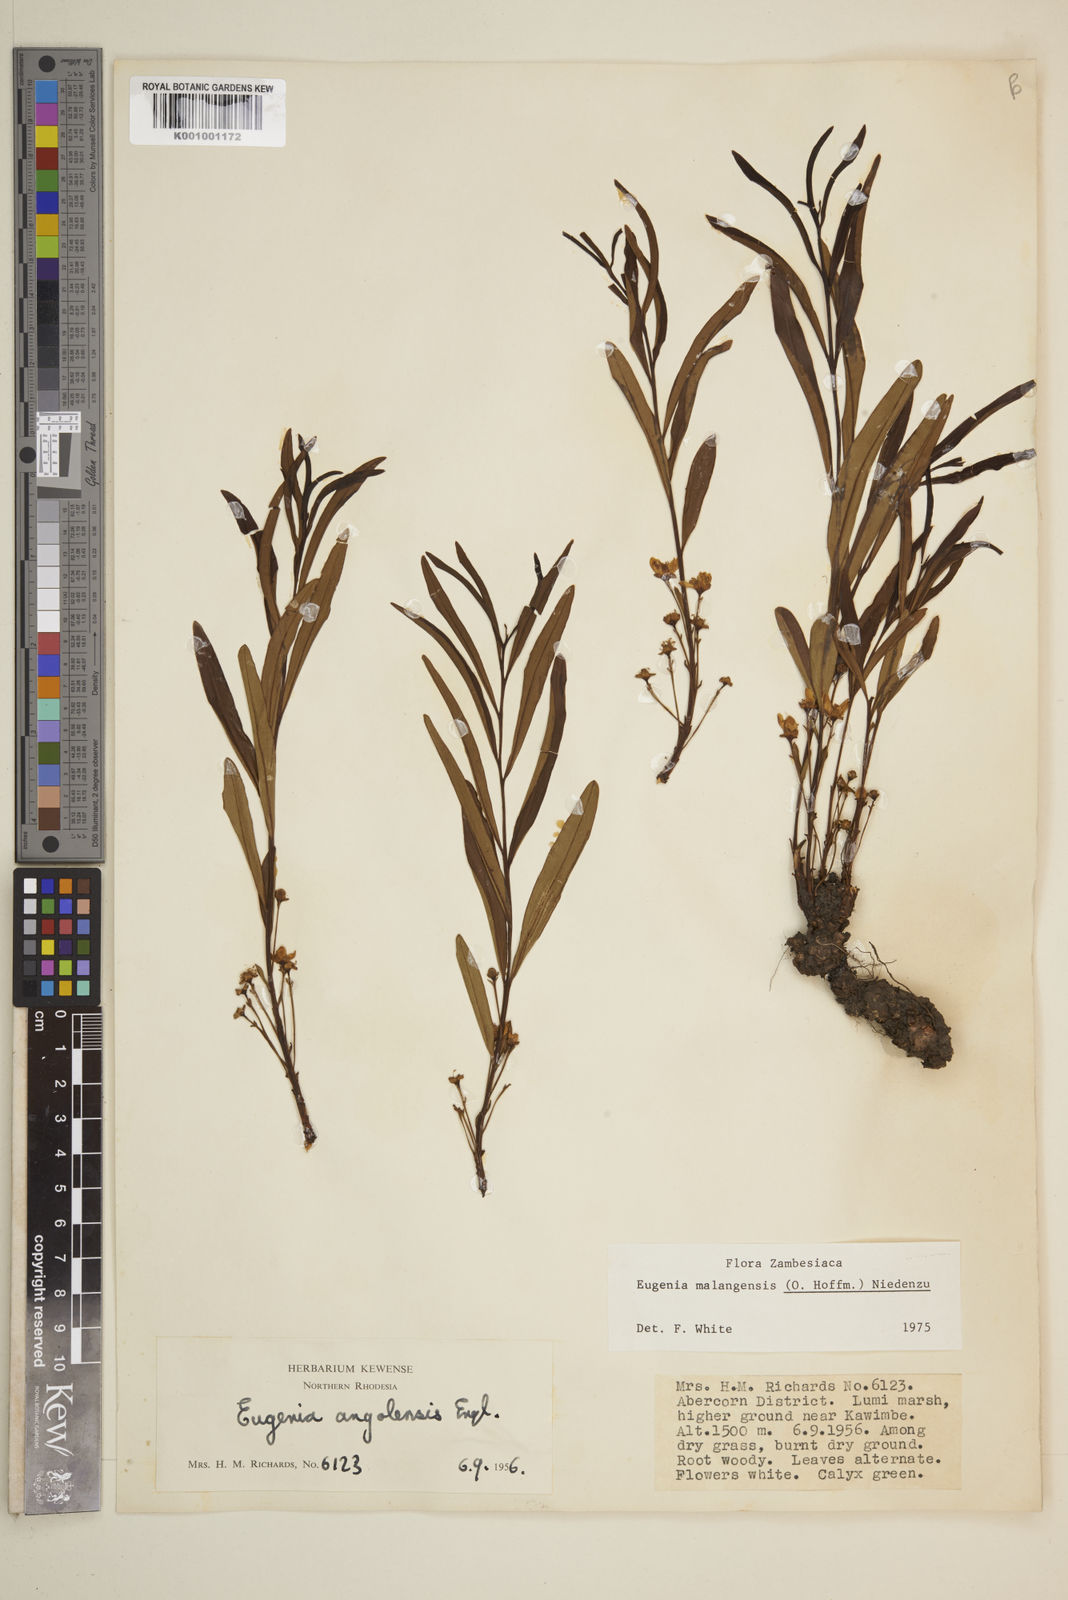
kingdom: Plantae
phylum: Tracheophyta
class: Magnoliopsida
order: Myrtales
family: Myrtaceae
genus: Eugenia
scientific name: Eugenia malangensis
